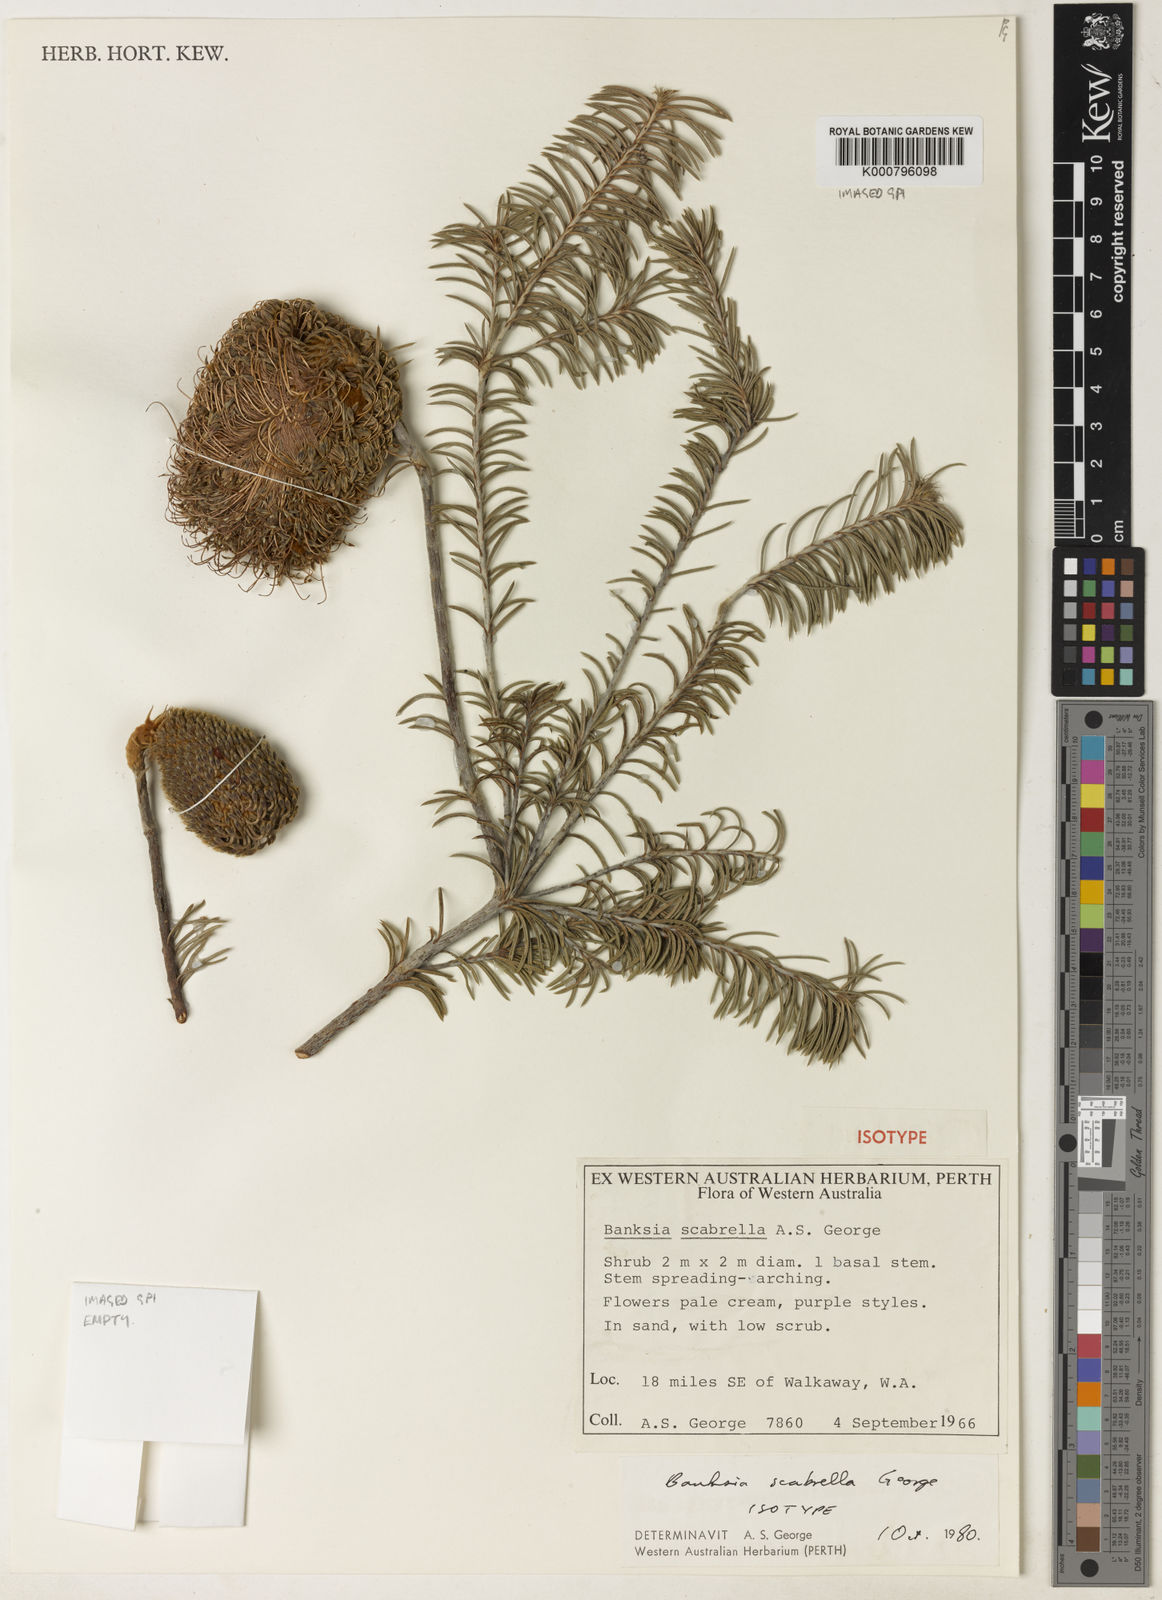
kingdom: Plantae
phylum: Tracheophyta
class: Magnoliopsida
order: Proteales
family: Proteaceae
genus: Banksia
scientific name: Banksia scabrella
